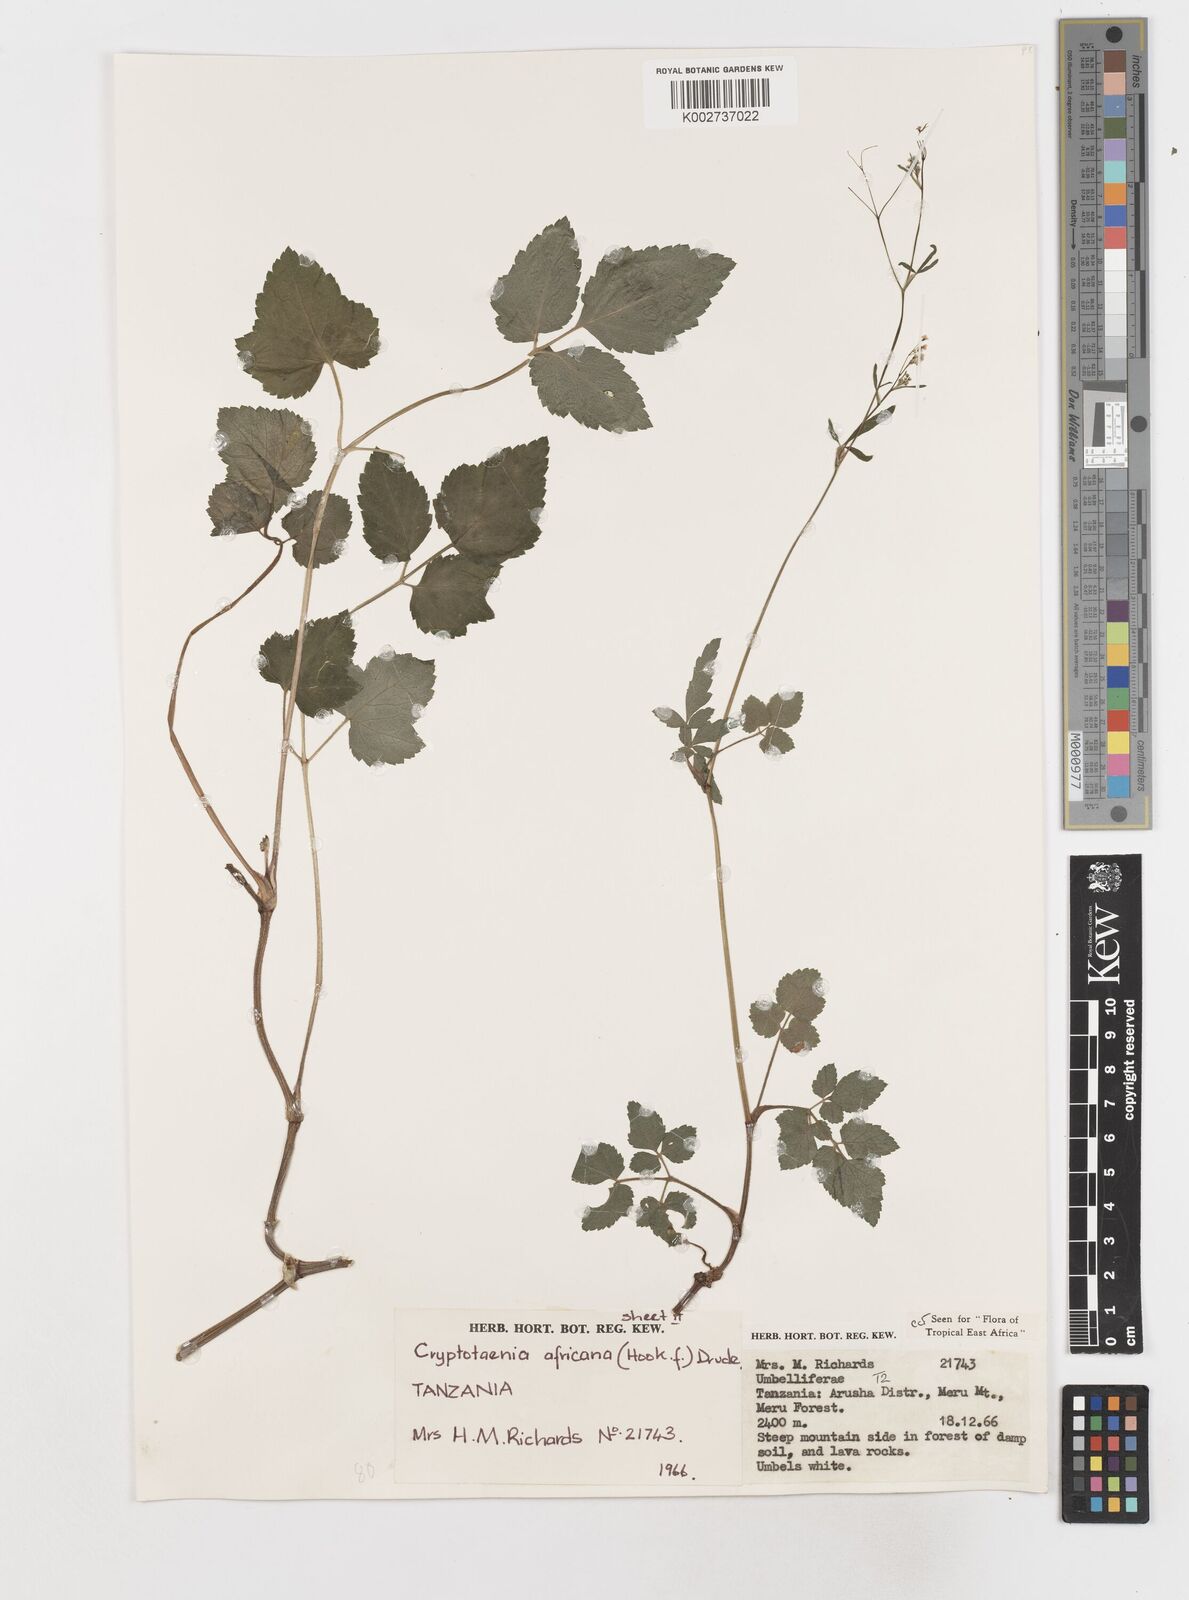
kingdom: Plantae
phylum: Tracheophyta
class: Magnoliopsida
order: Apiales
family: Apiaceae
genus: Cryptotaenia
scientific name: Cryptotaenia africana
